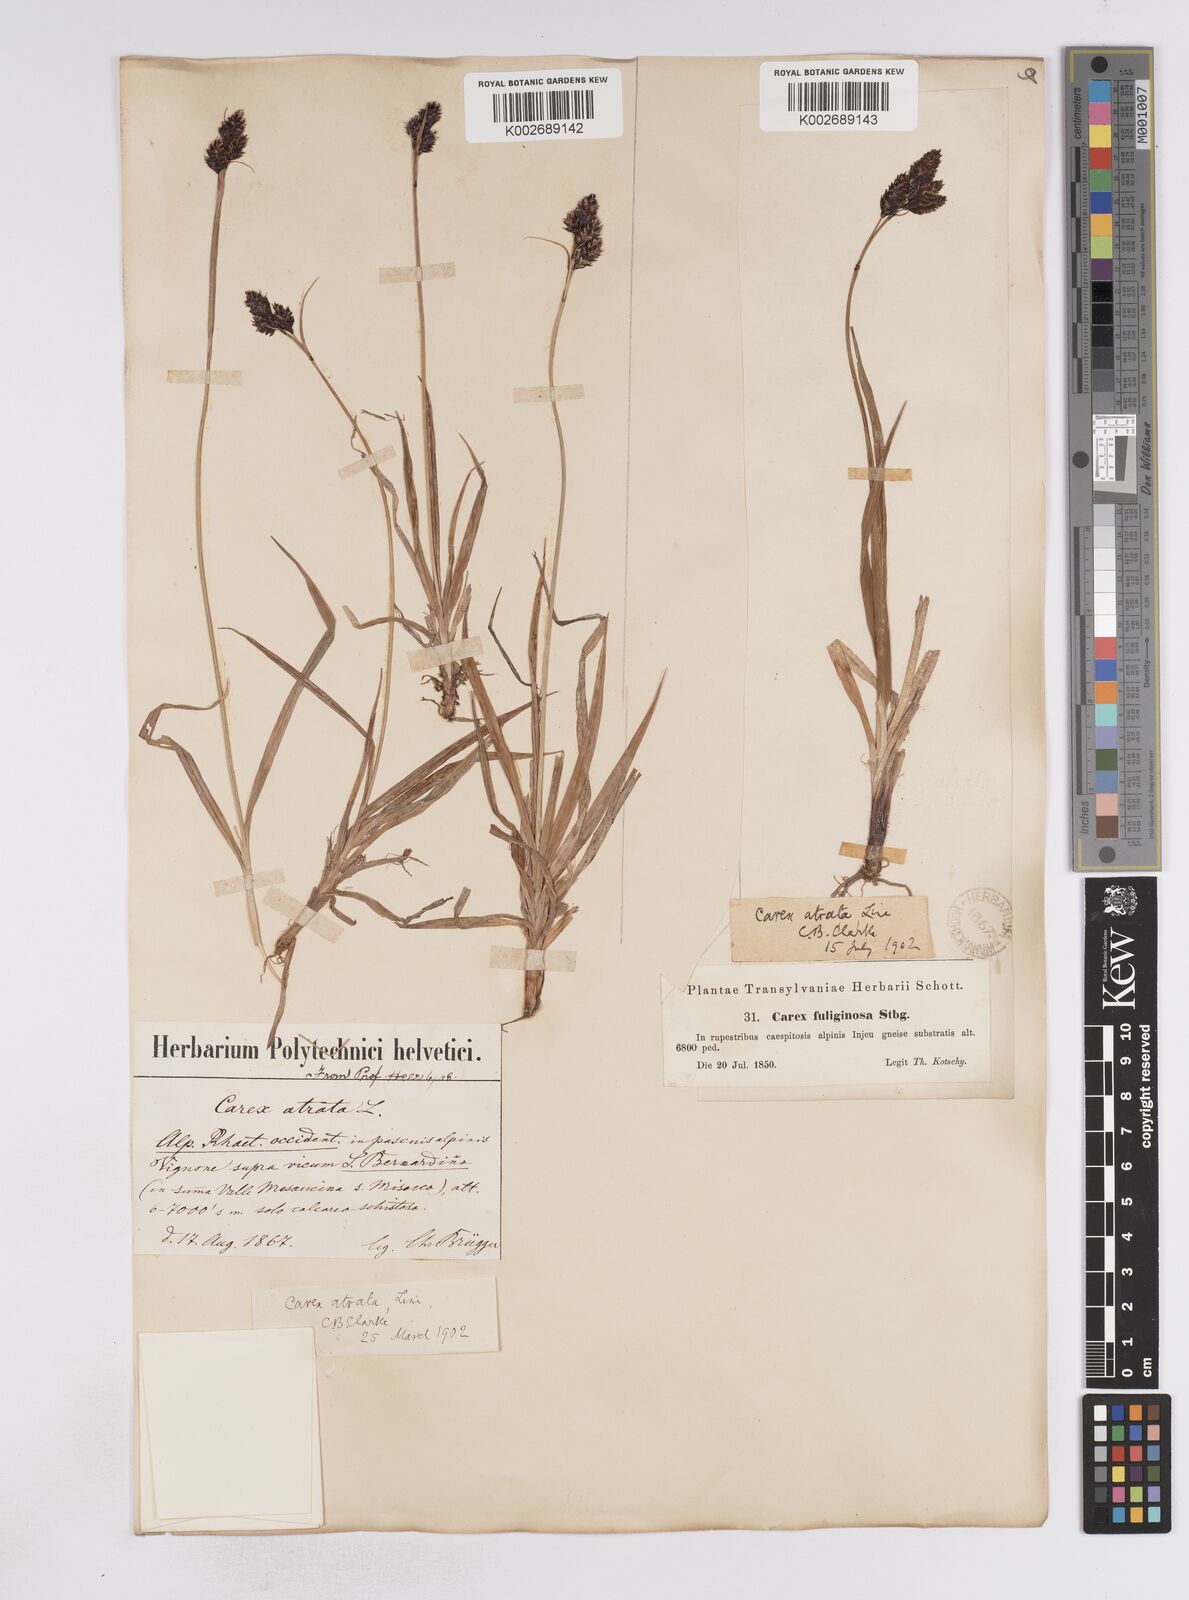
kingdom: Plantae
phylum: Tracheophyta
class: Liliopsida
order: Poales
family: Cyperaceae
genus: Carex
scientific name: Carex aterrima
